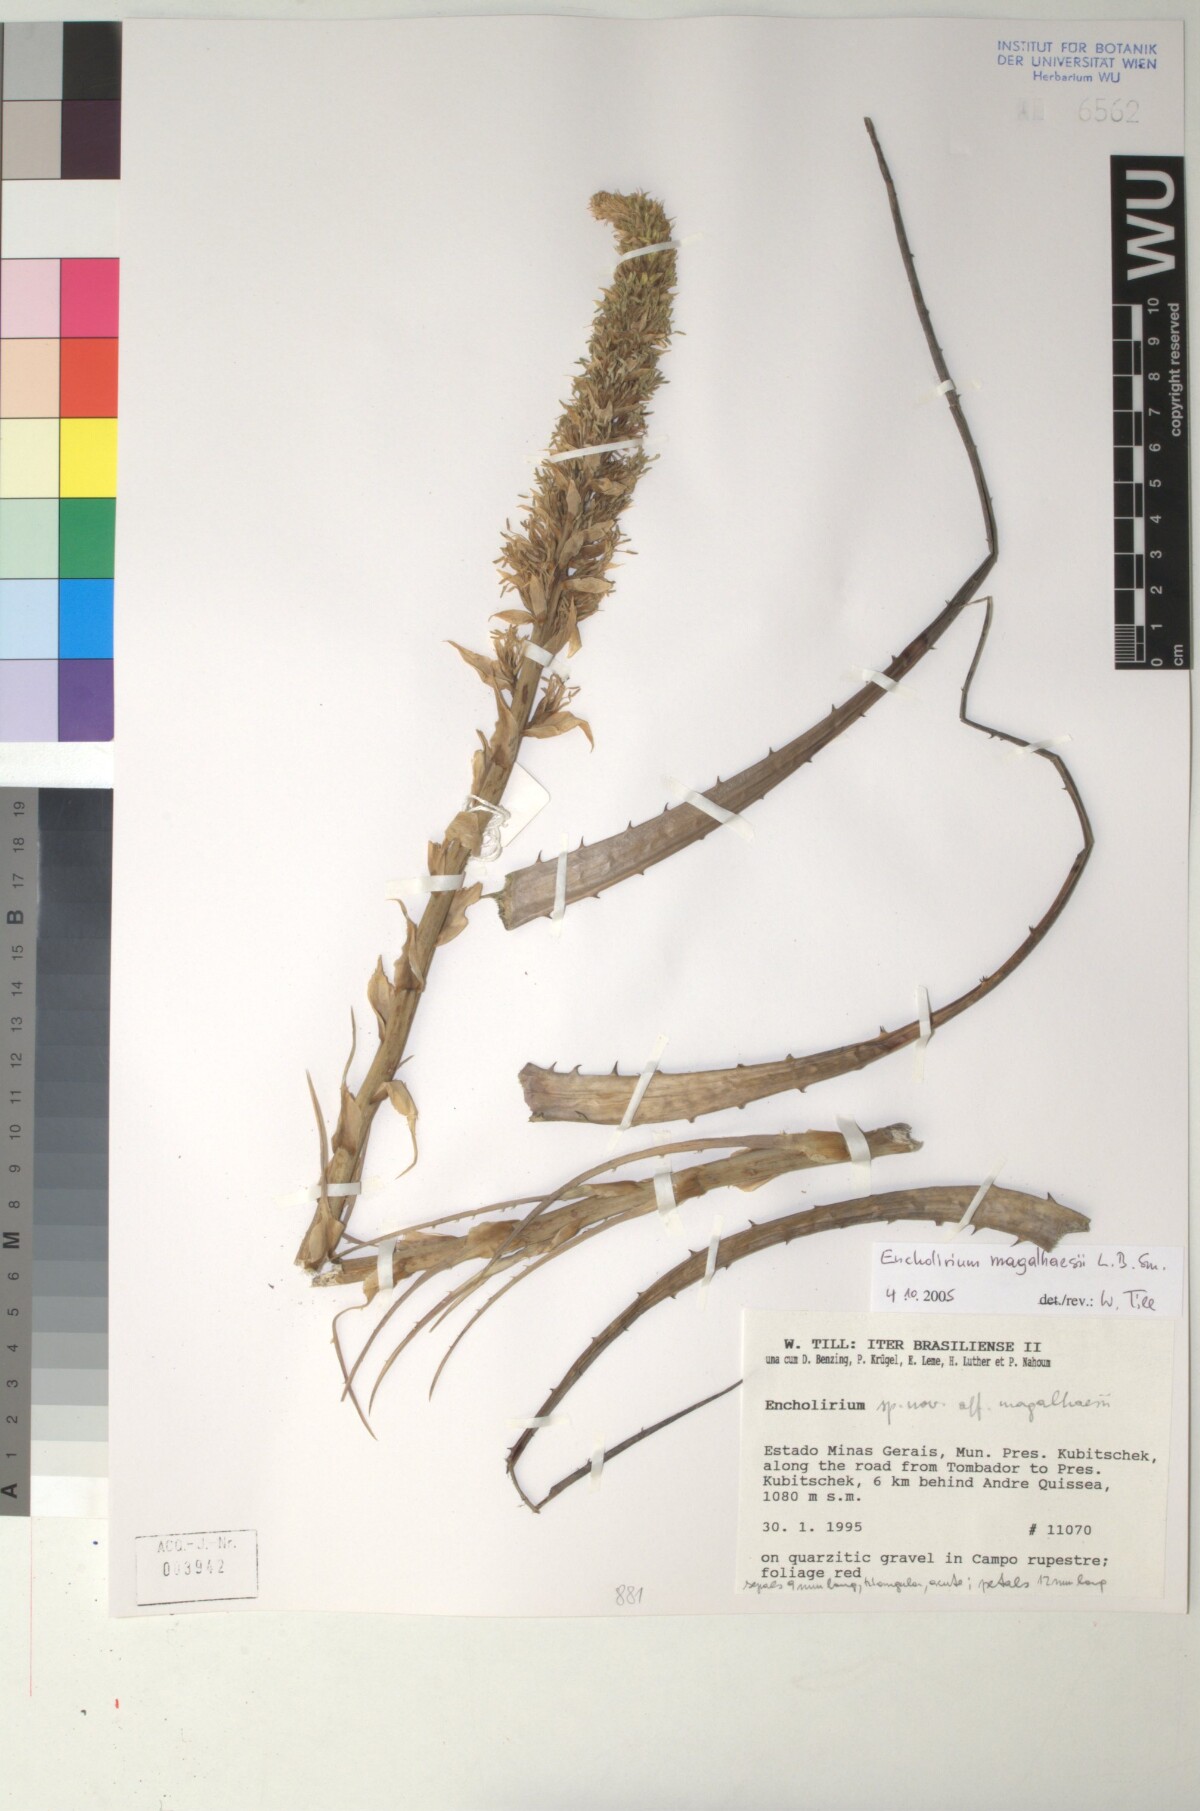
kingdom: Plantae
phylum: Tracheophyta
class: Liliopsida
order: Poales
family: Bromeliaceae
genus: Encholirium
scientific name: Encholirium magalhaesii
